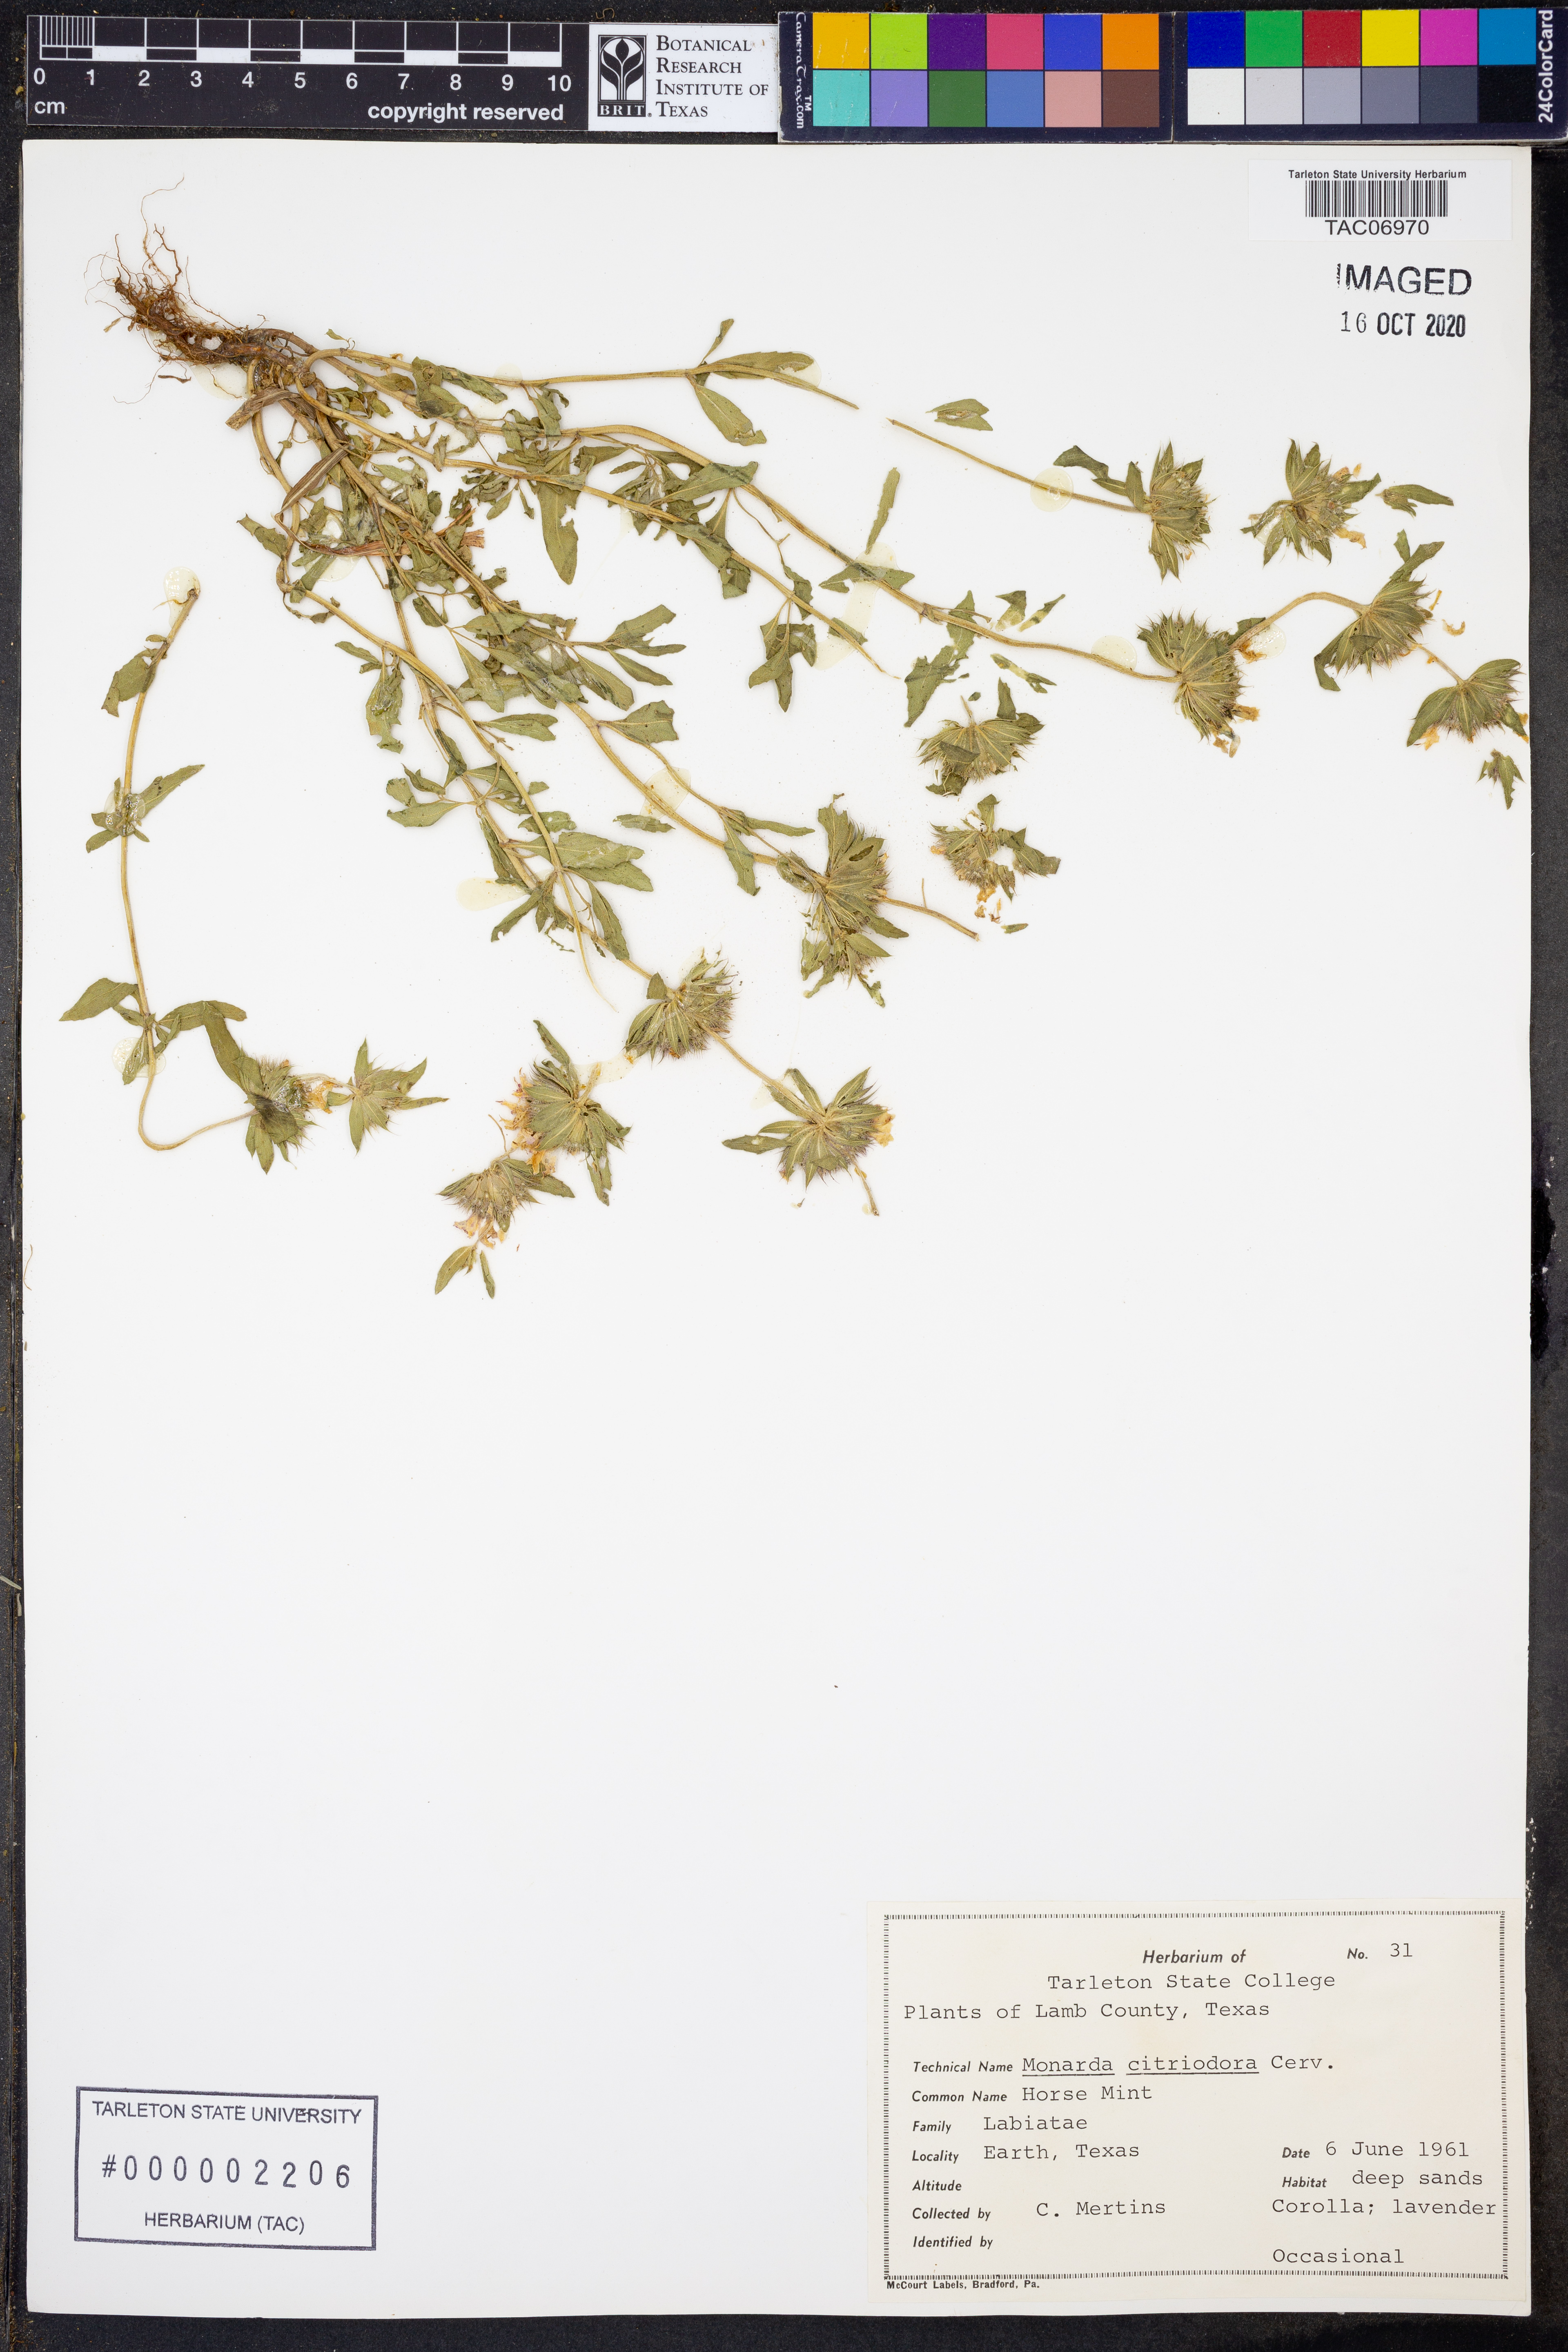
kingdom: Plantae
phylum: Tracheophyta
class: Magnoliopsida
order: Lamiales
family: Lamiaceae
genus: Monarda
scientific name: Monarda citriodora
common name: Lemon beebalm
